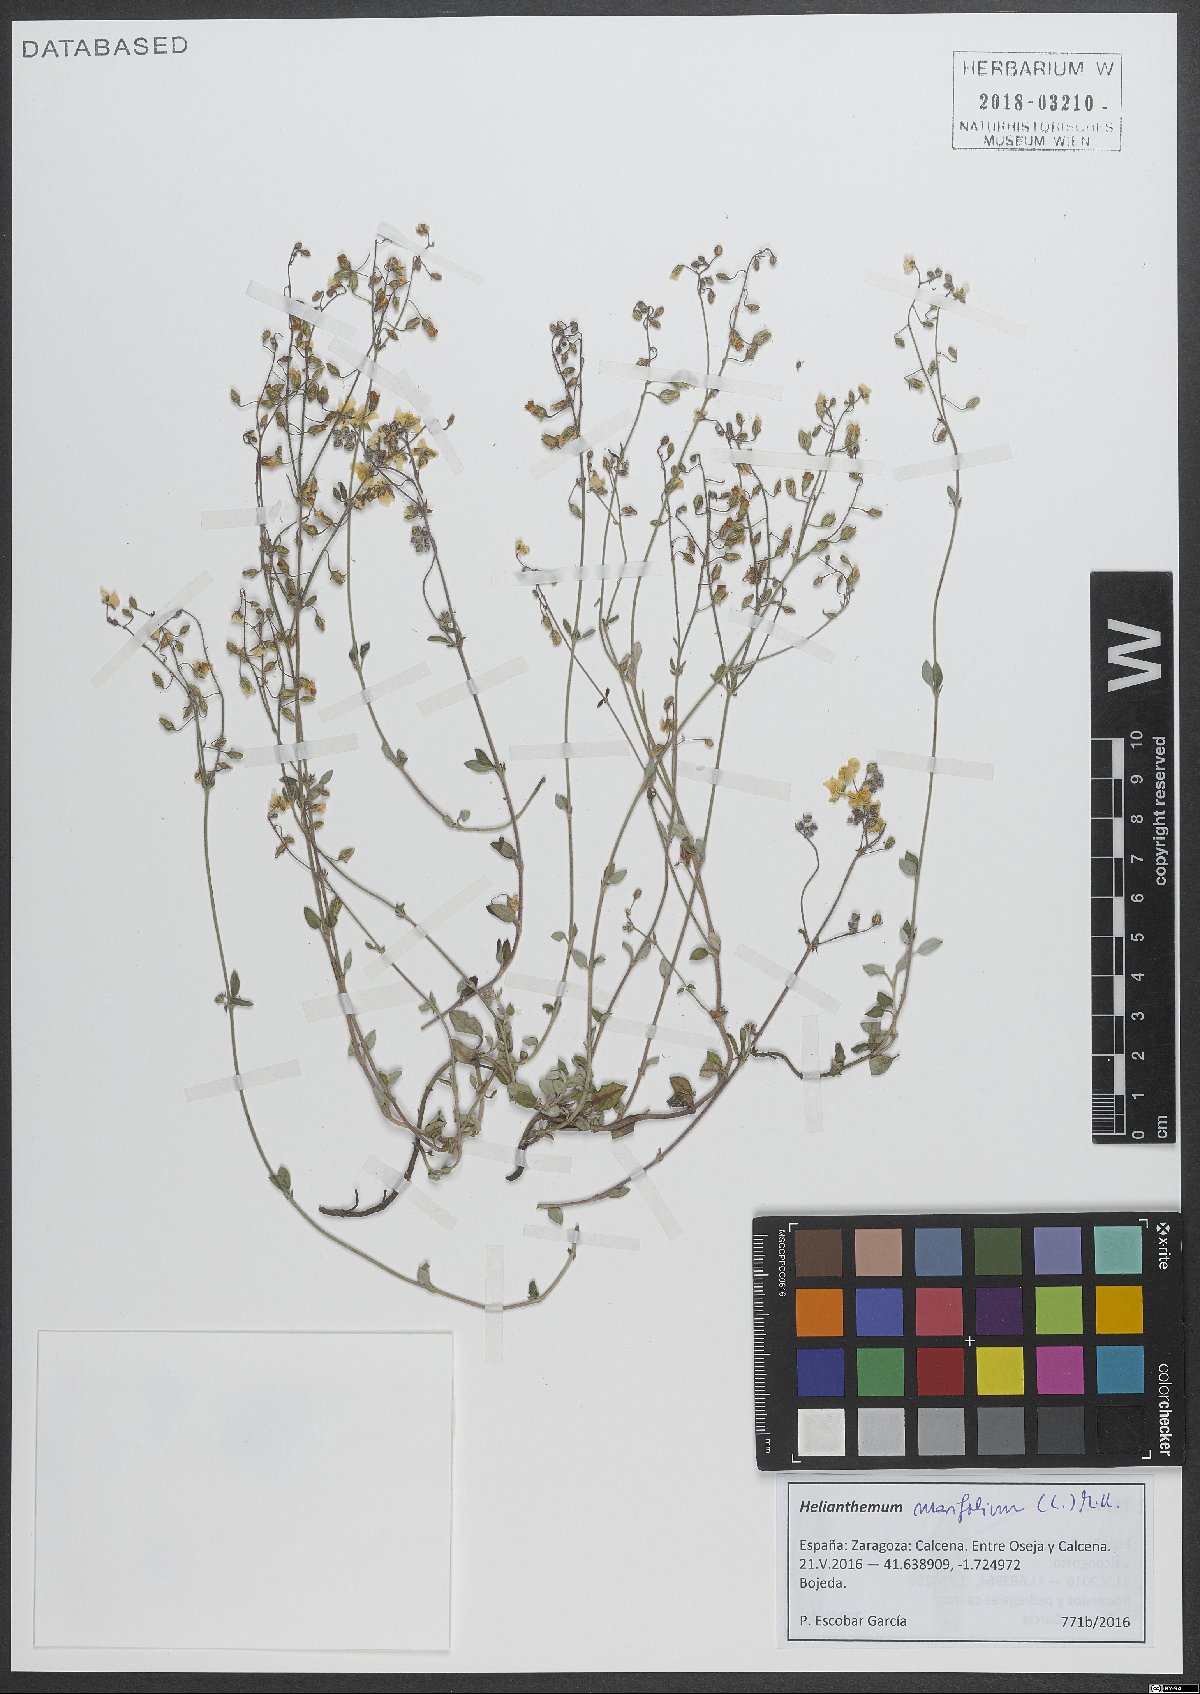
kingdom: Plantae
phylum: Tracheophyta
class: Magnoliopsida
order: Malvales
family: Cistaceae
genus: Helianthemum
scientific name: Helianthemum marifolium
